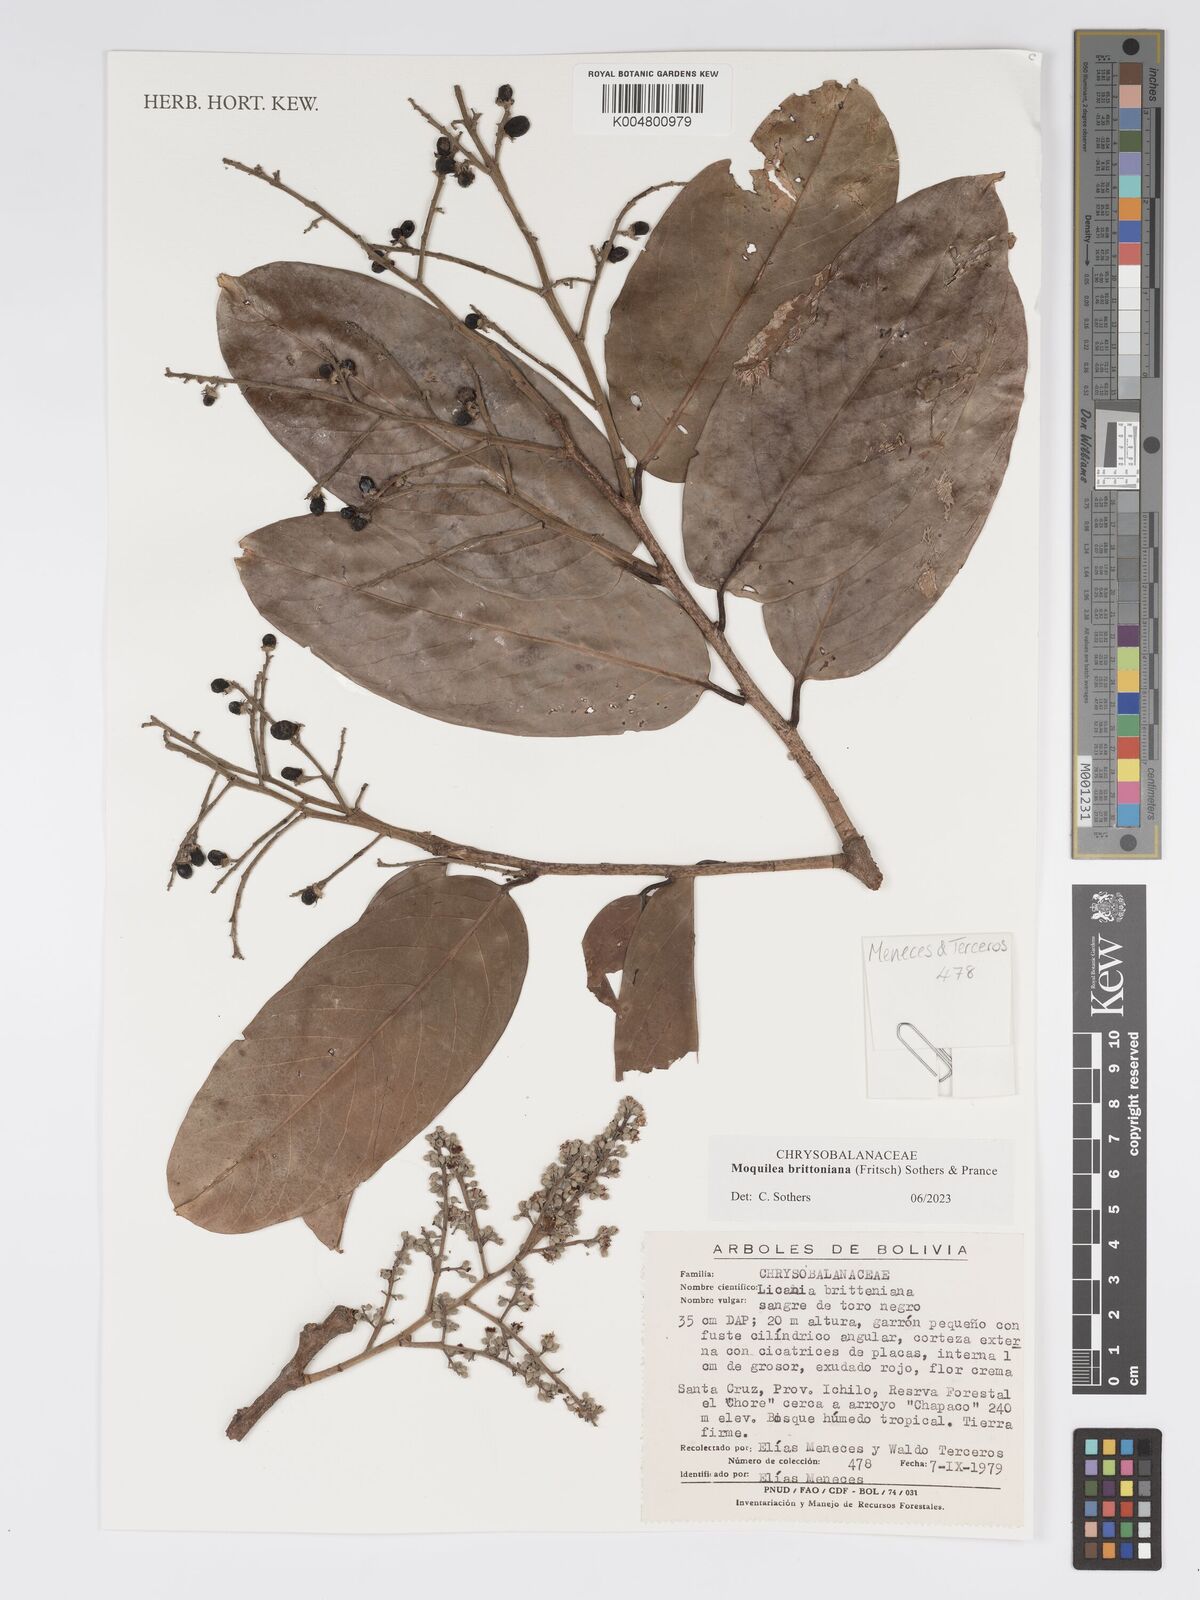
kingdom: Plantae
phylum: Tracheophyta
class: Magnoliopsida
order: Malpighiales
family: Chrysobalanaceae
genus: Moquilea
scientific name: Moquilea brittoniana
